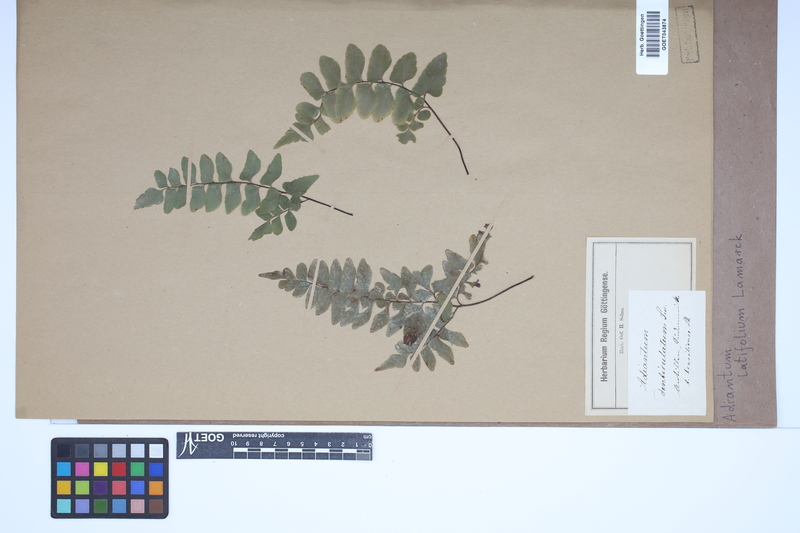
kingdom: Plantae
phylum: Tracheophyta
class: Polypodiopsida
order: Polypodiales
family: Pteridaceae
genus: Adiantum
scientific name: Adiantum latifolium
